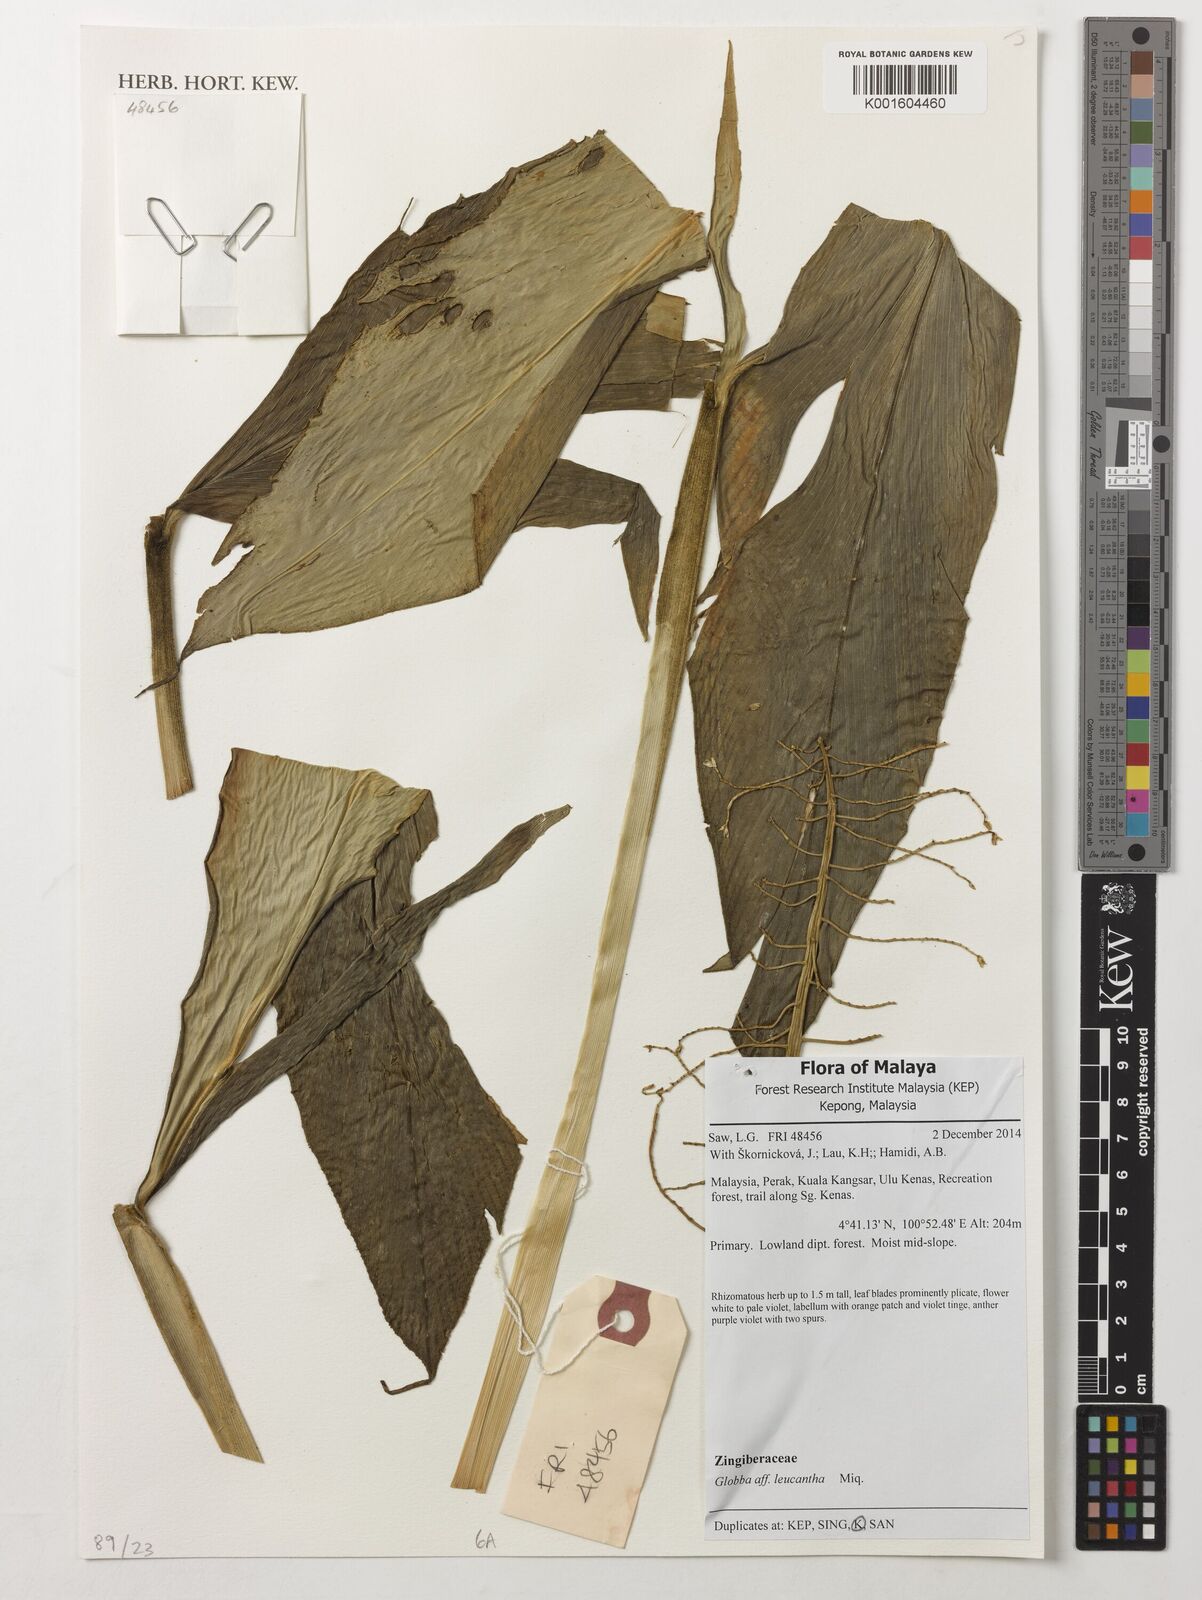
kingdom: Plantae
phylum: Tracheophyta
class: Liliopsida
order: Zingiberales
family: Zingiberaceae
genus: Globba
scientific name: Globba leucantha
